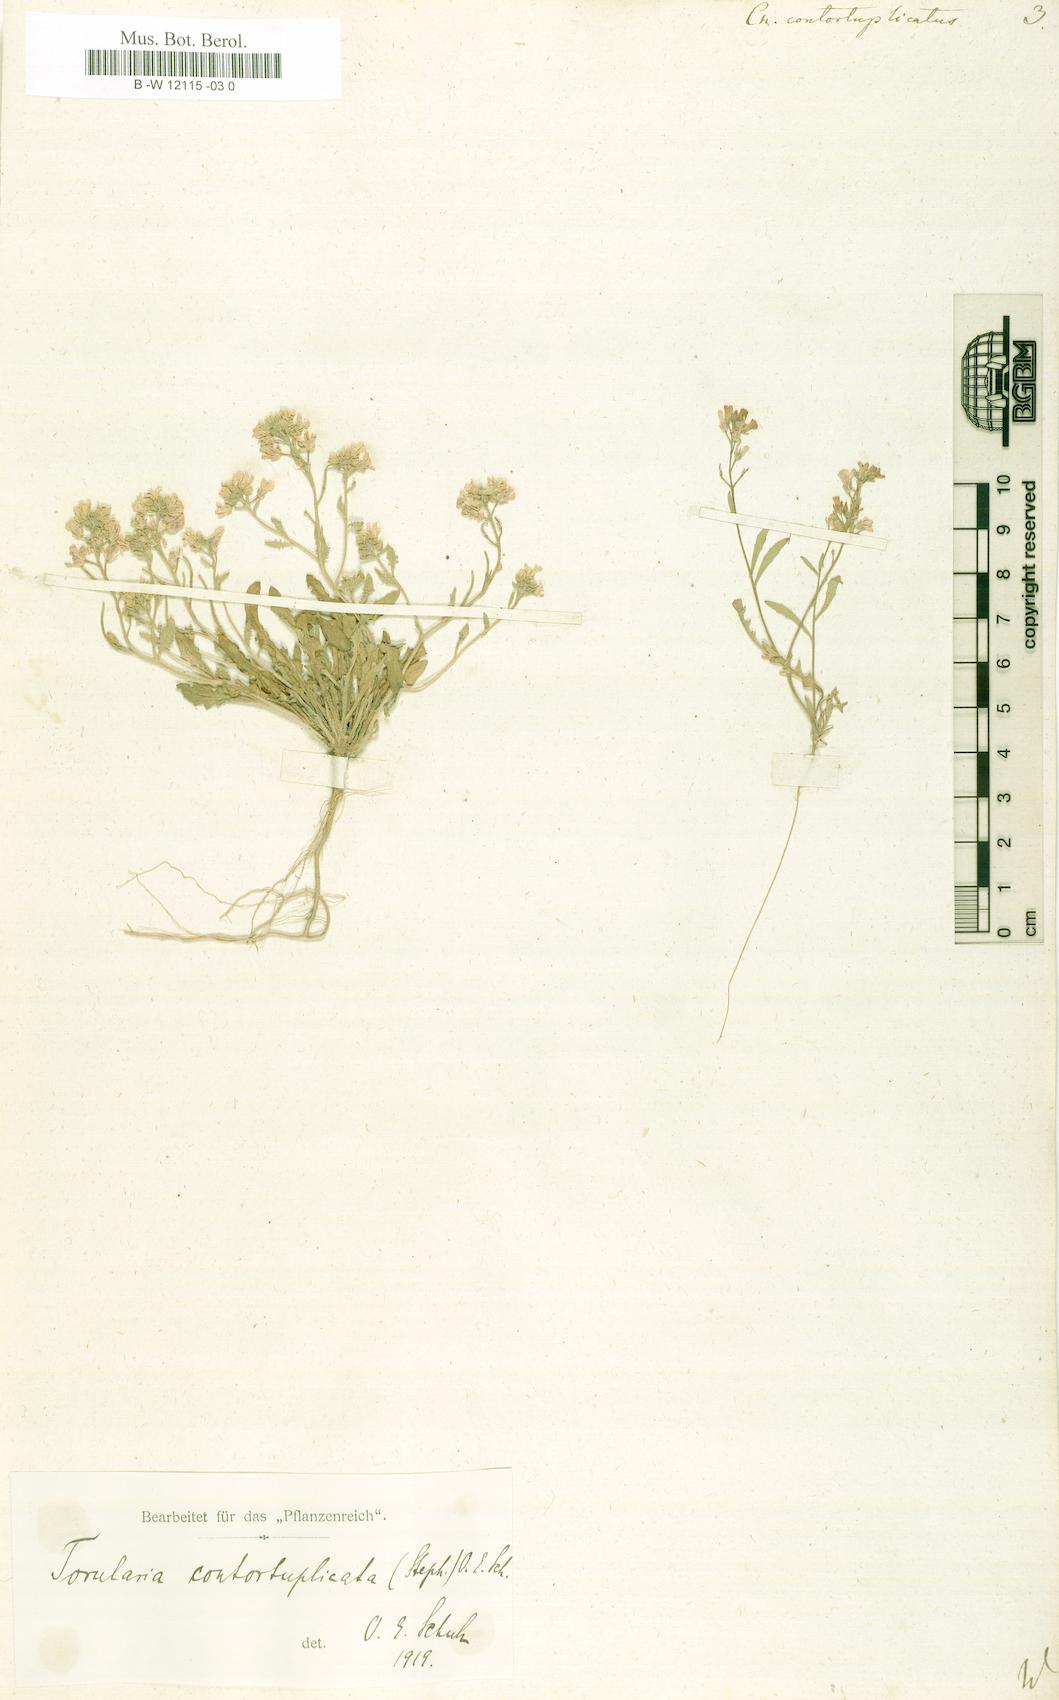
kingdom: Plantae
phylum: Tracheophyta
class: Magnoliopsida
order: Brassicales
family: Brassicaceae
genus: Neotorularia
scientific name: Neotorularia contortuplicata
